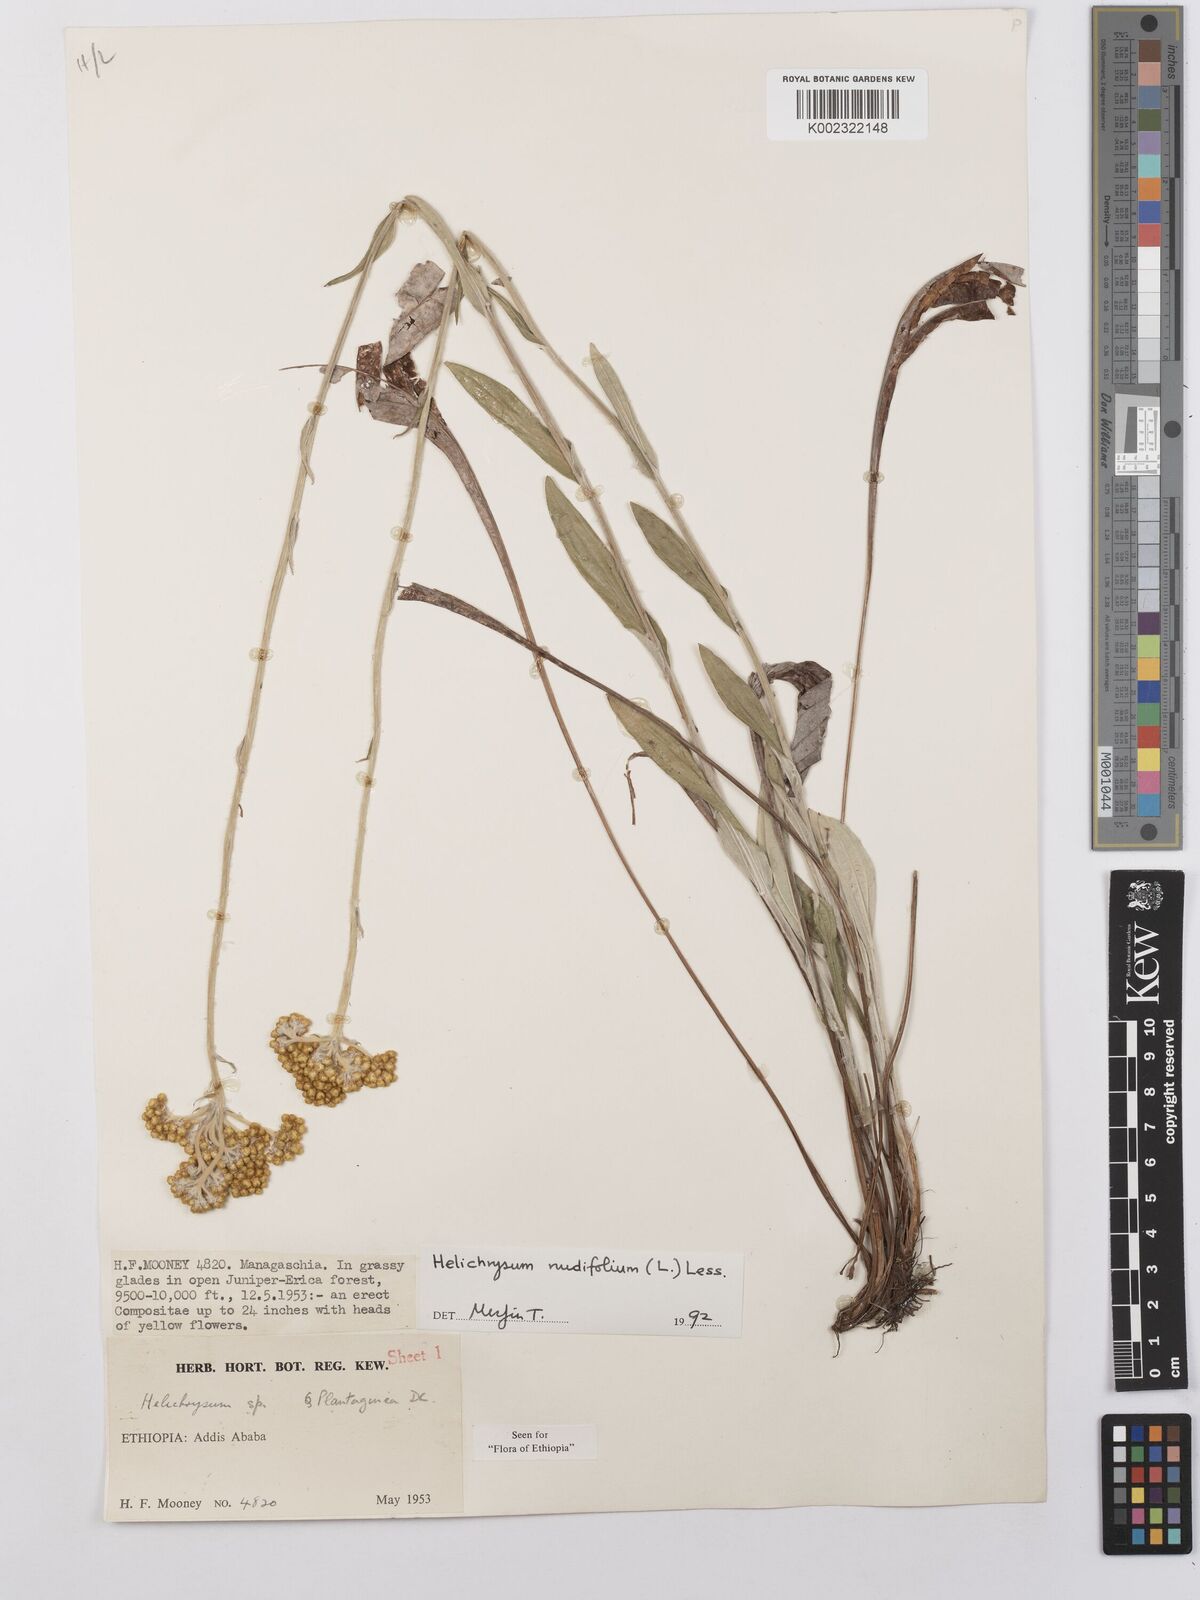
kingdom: Plantae
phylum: Tracheophyta
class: Magnoliopsida
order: Asterales
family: Asteraceae
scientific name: Asteraceae
